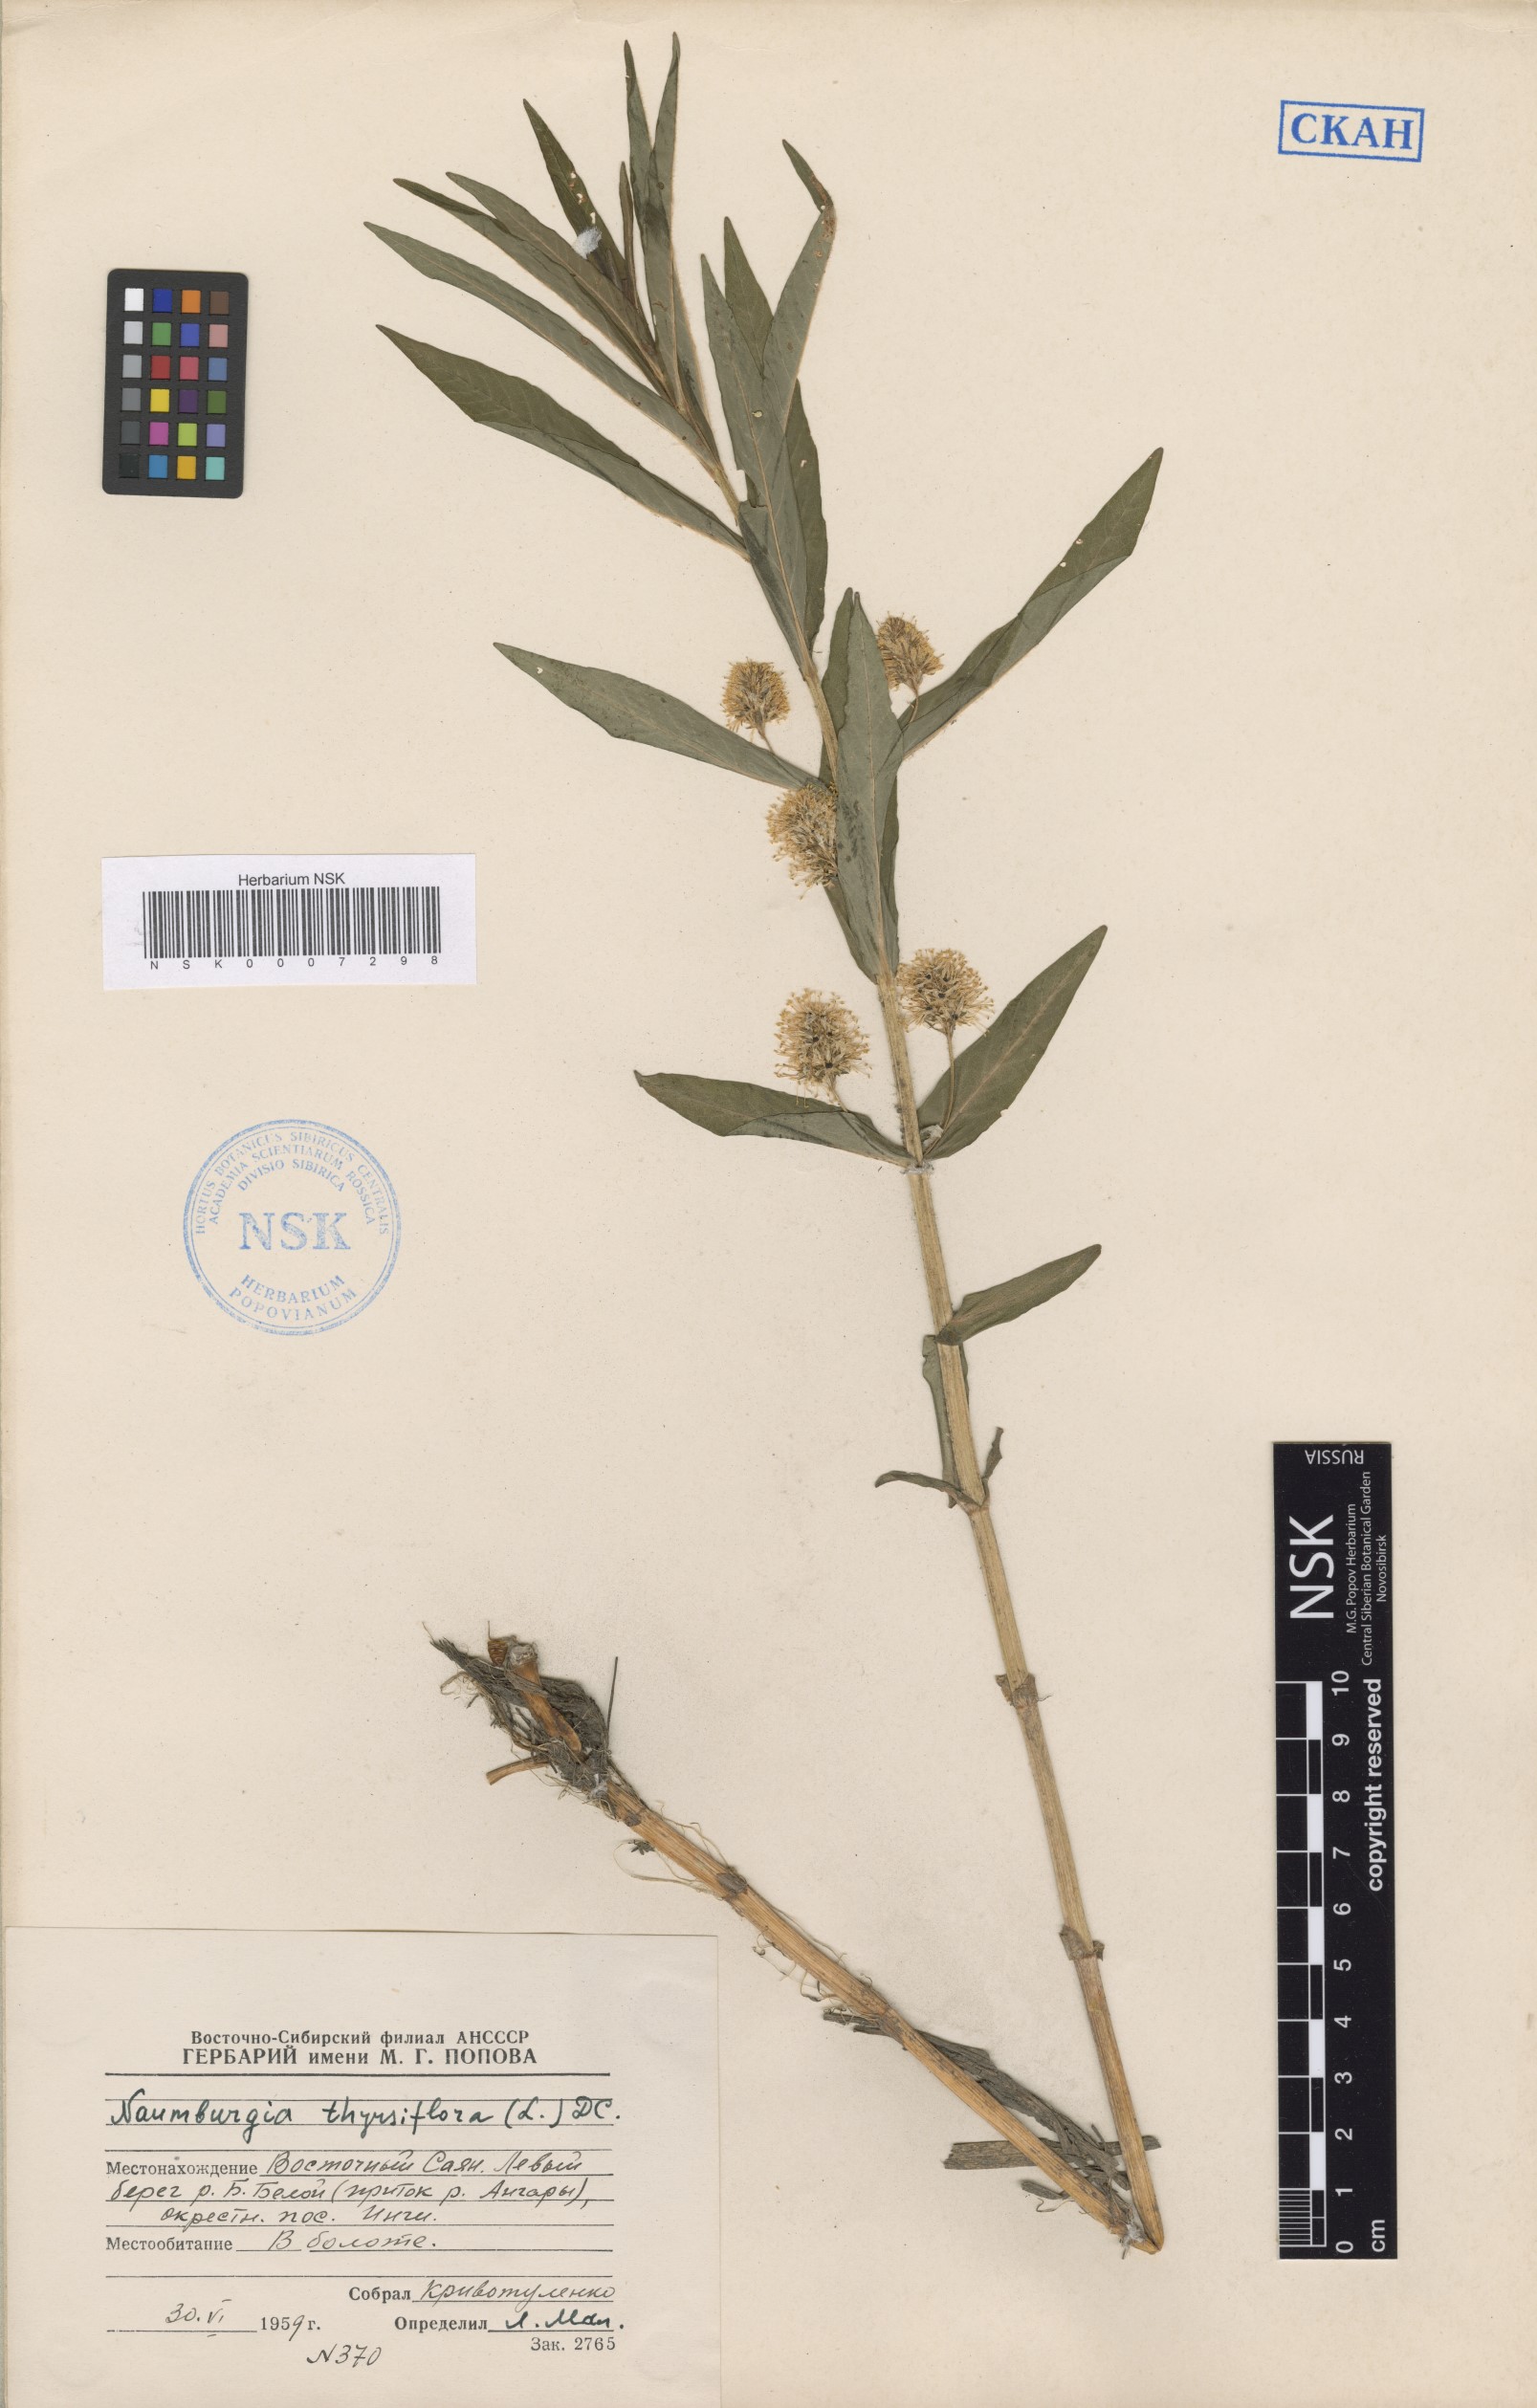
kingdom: Plantae
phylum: Tracheophyta
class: Magnoliopsida
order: Ericales
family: Primulaceae
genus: Lysimachia
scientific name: Lysimachia thyrsiflora
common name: Tufted loosestrife
